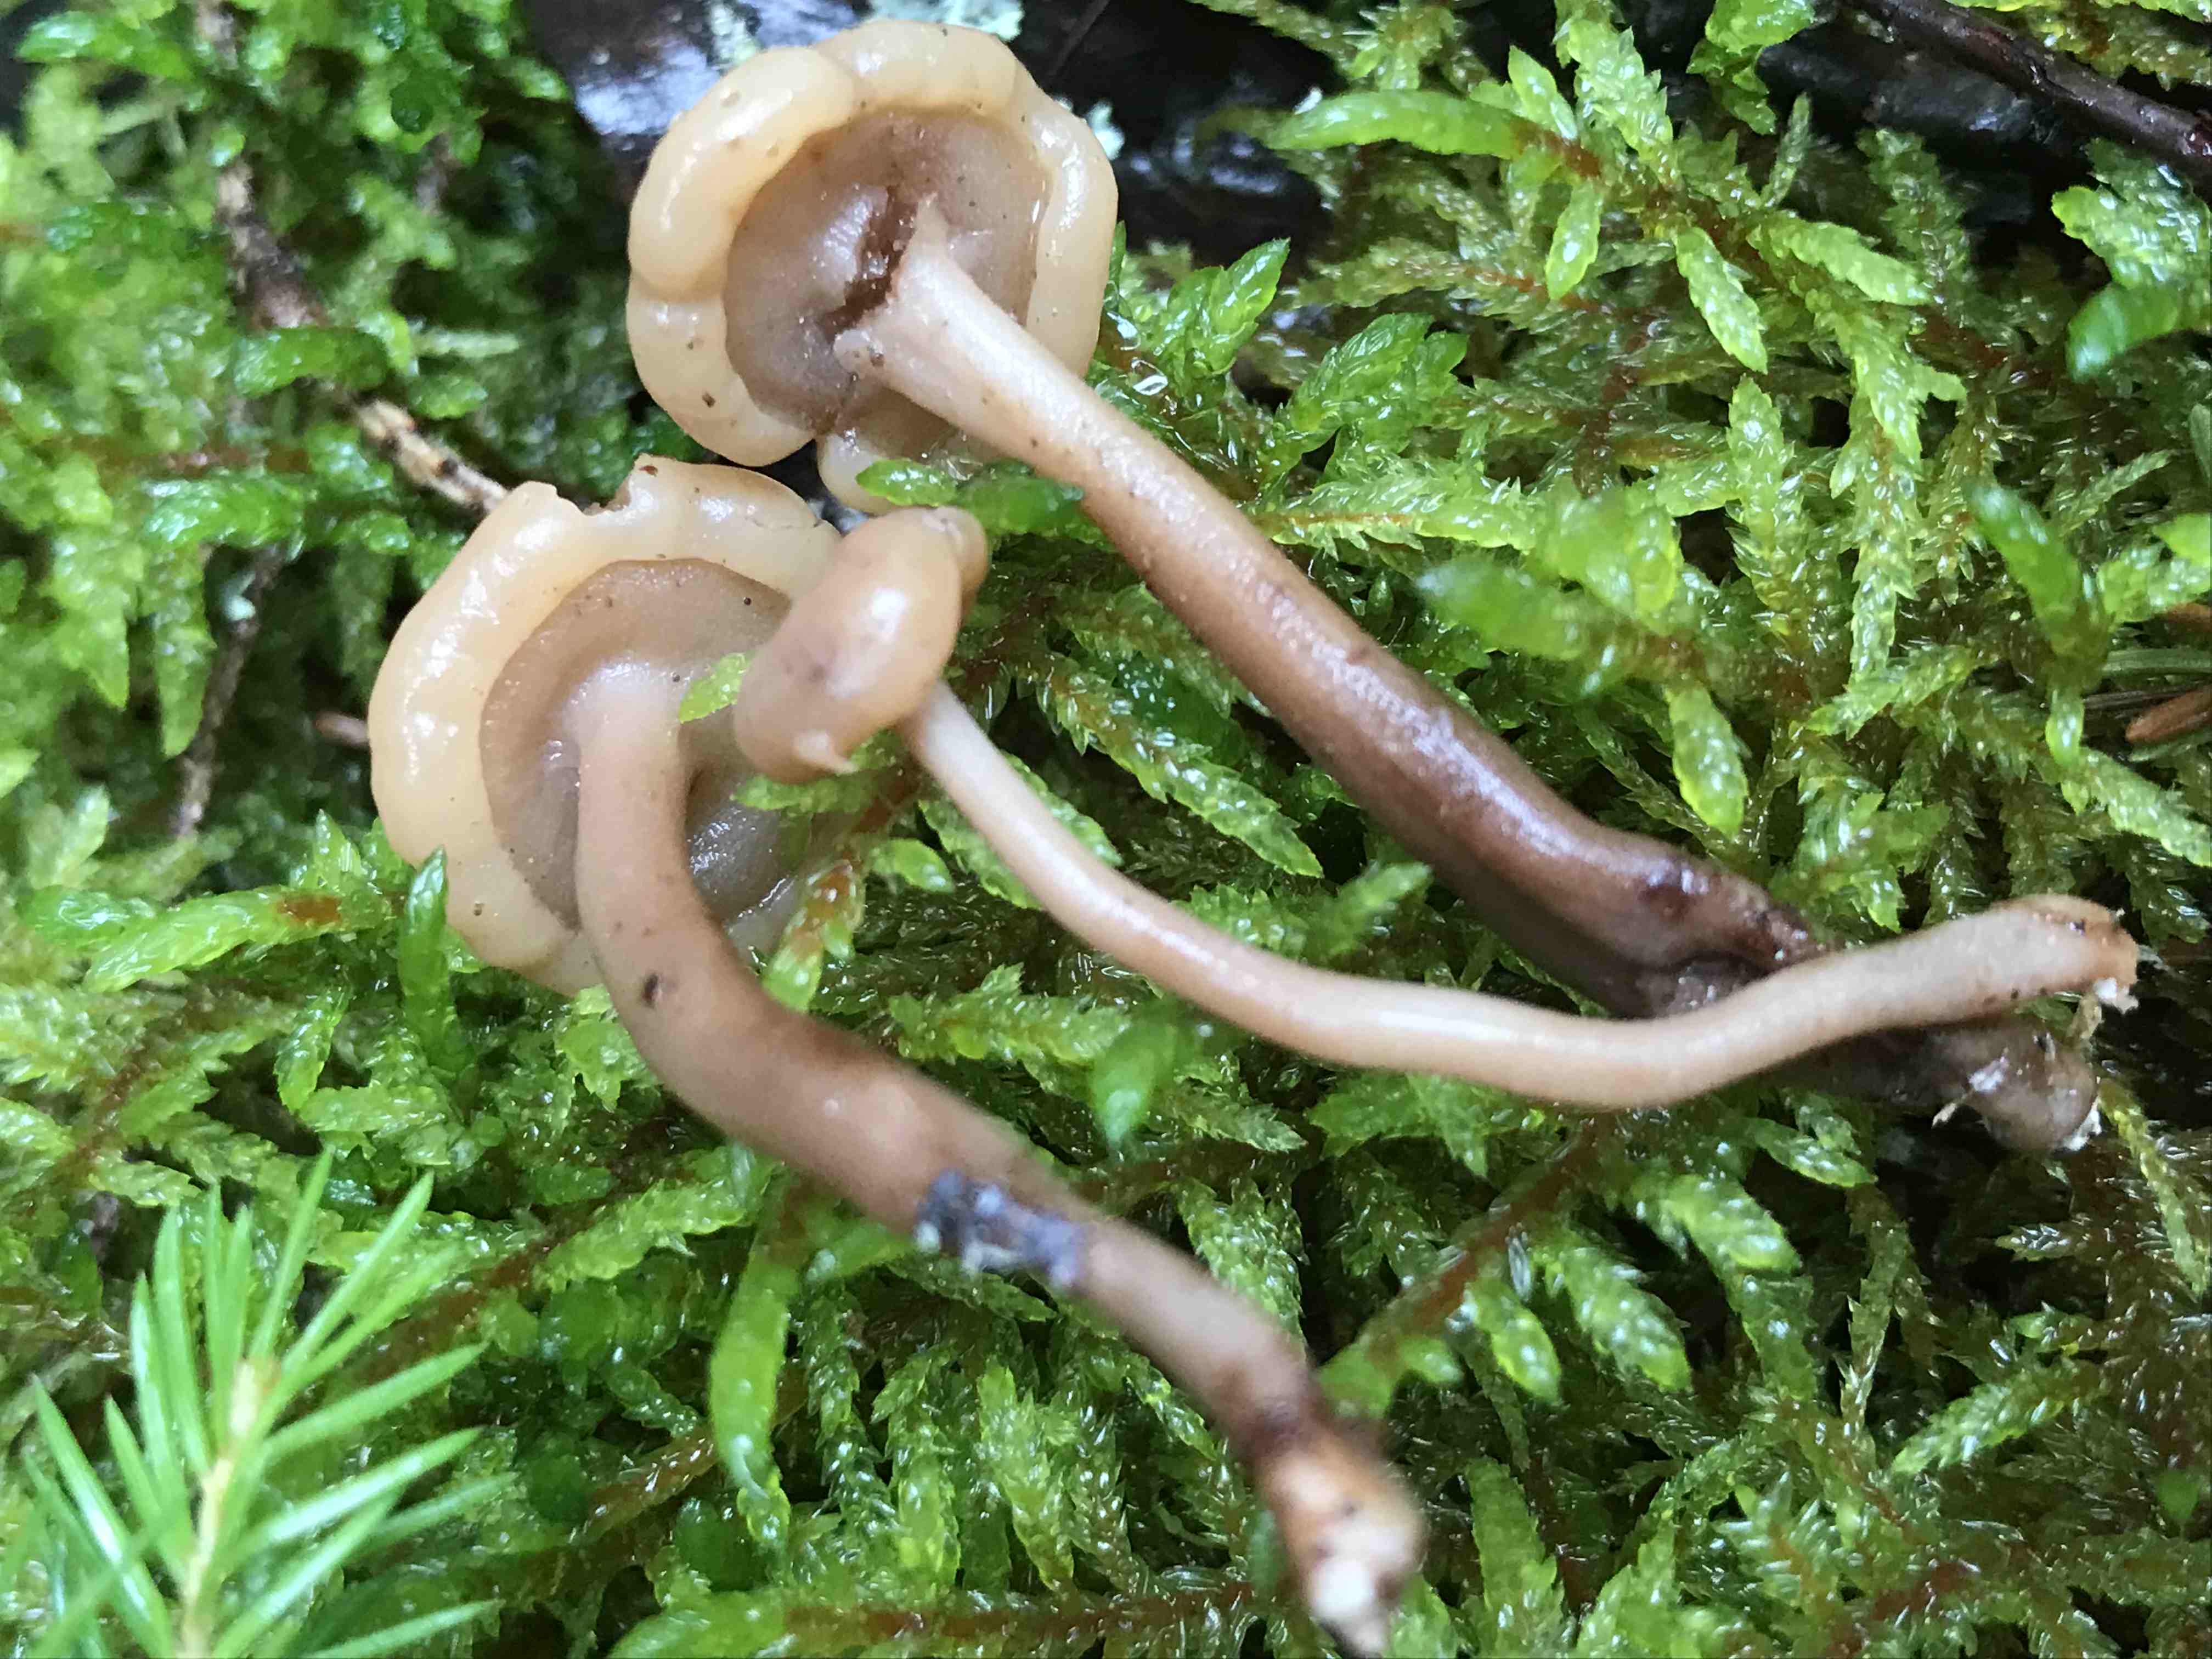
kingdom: Fungi
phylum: Ascomycota
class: Leotiomycetes
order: Rhytismatales
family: Cudoniaceae
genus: Cudonia
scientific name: Cudonia confusa
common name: ensfarvet hjelmmorkel
